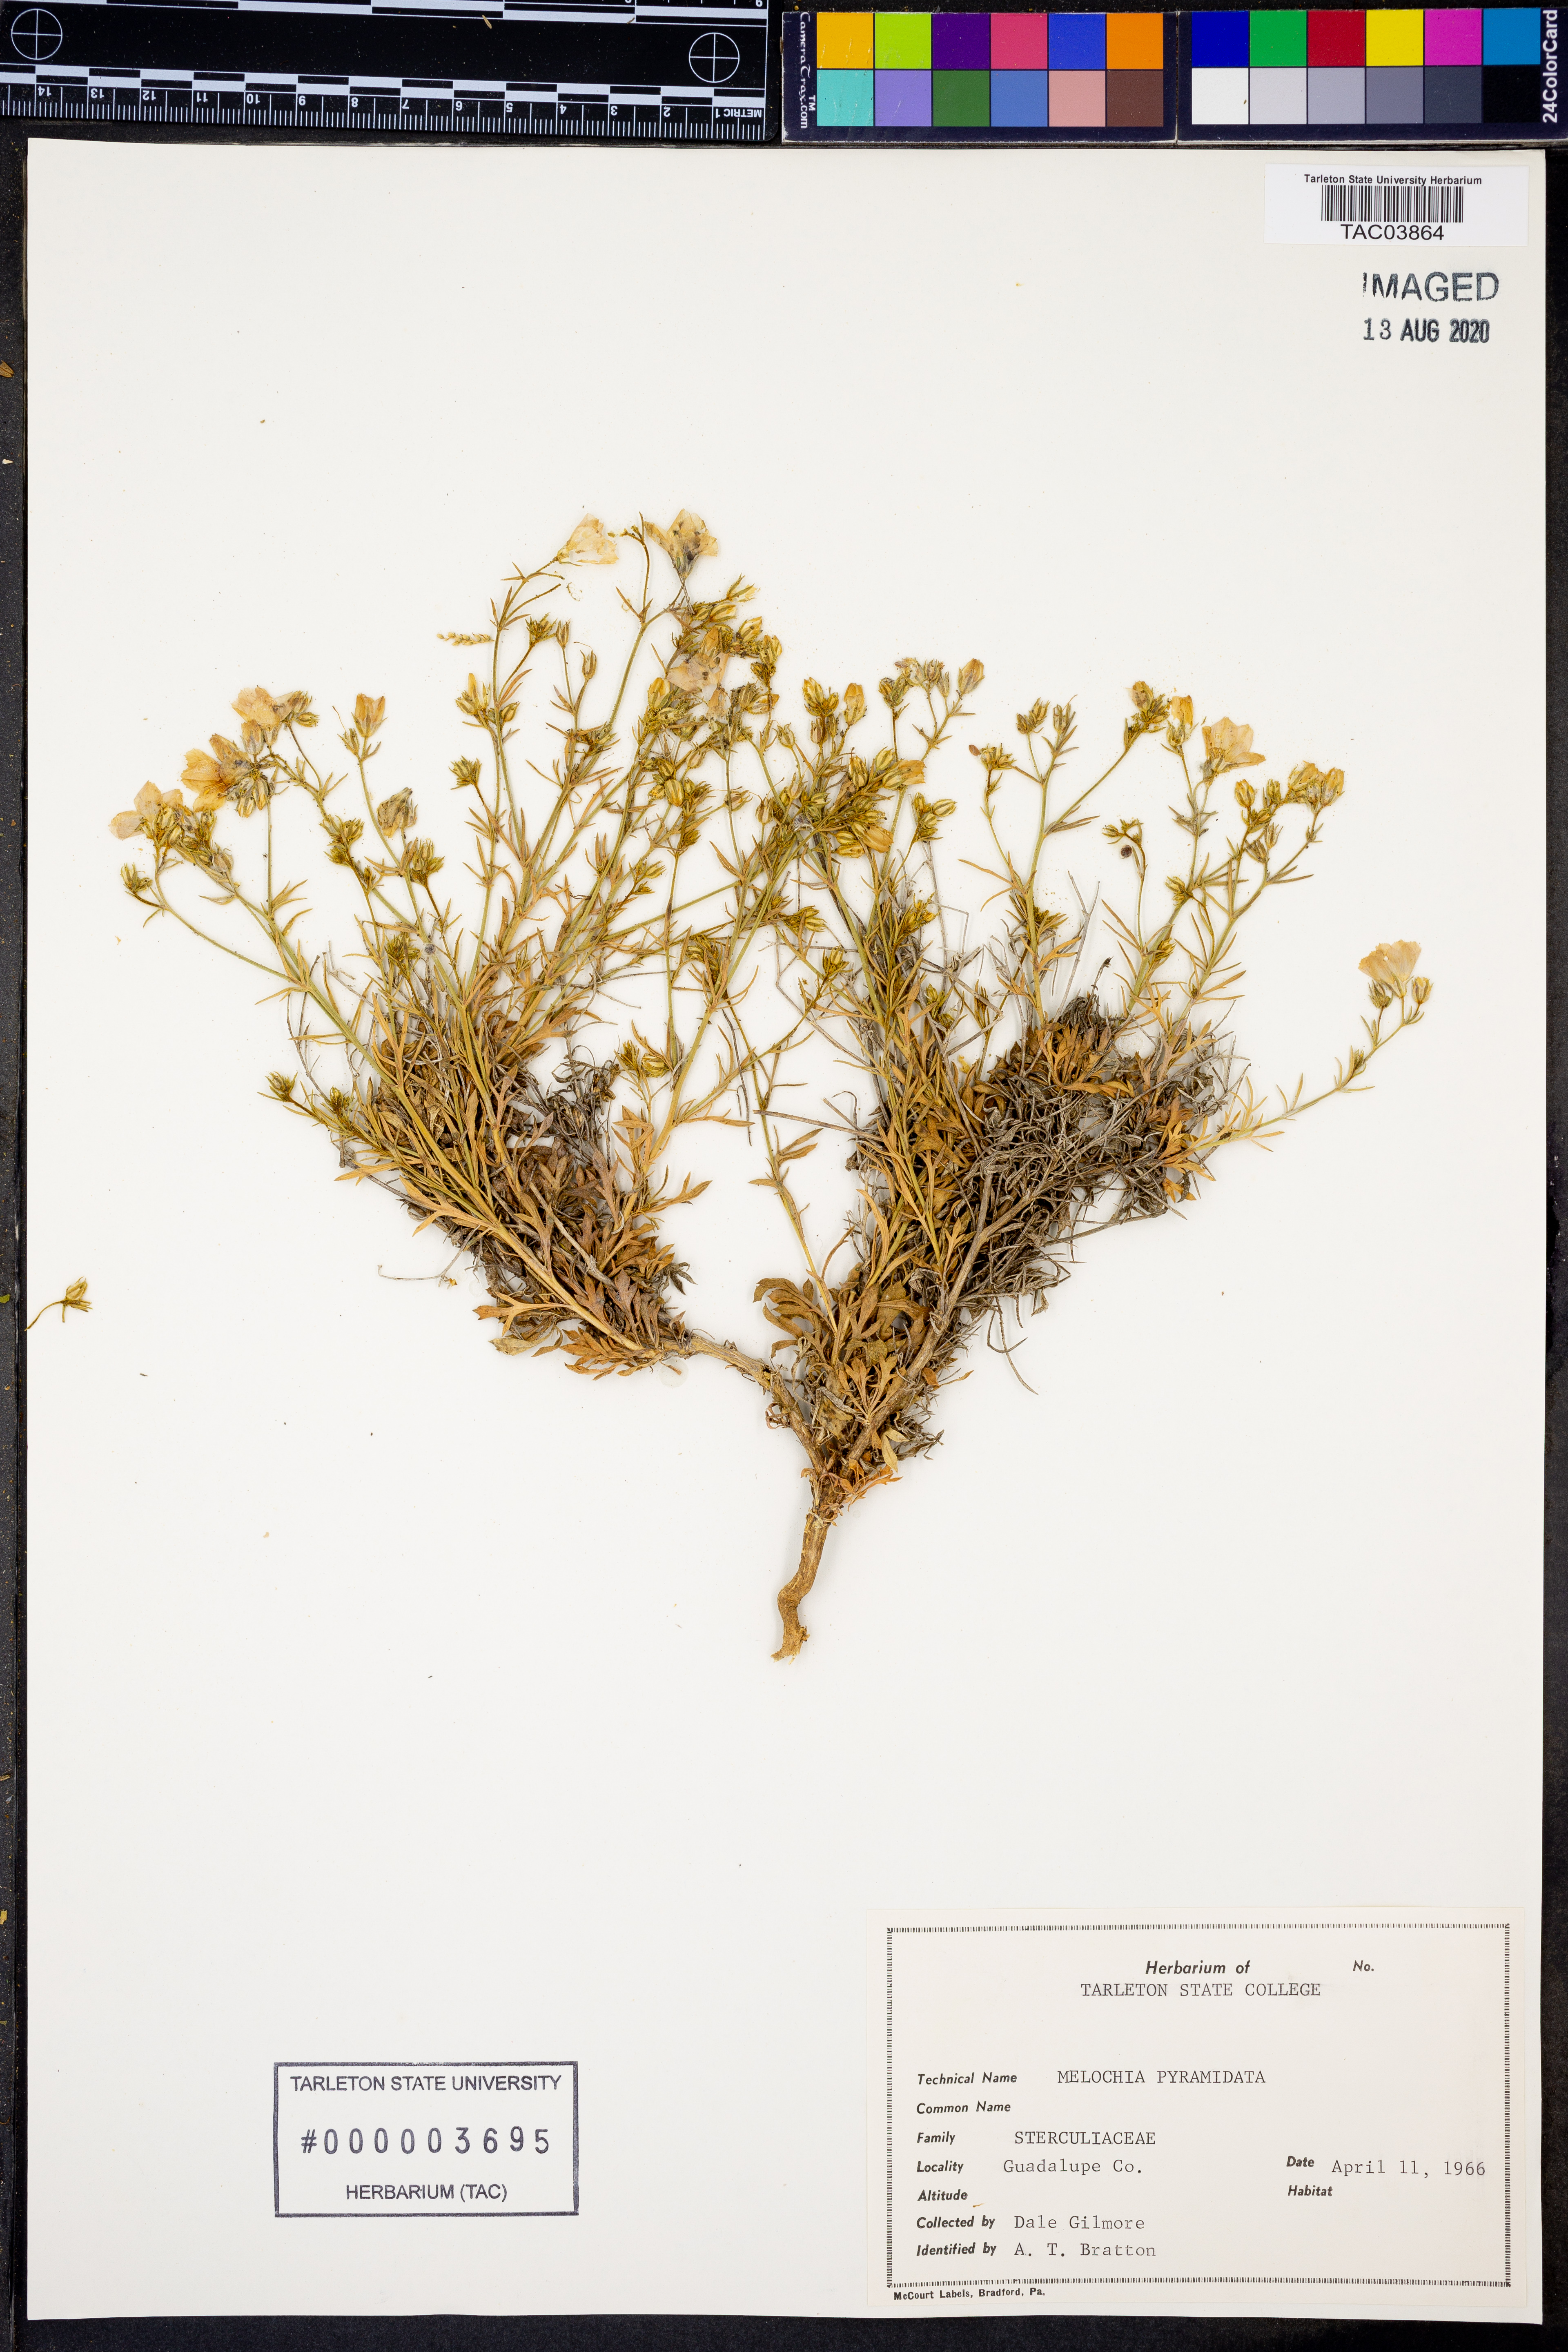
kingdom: Plantae
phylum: Tracheophyta
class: Magnoliopsida
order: Malvales
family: Malvaceae
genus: Melochia
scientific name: Melochia pyramidata
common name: Pyramidflower
